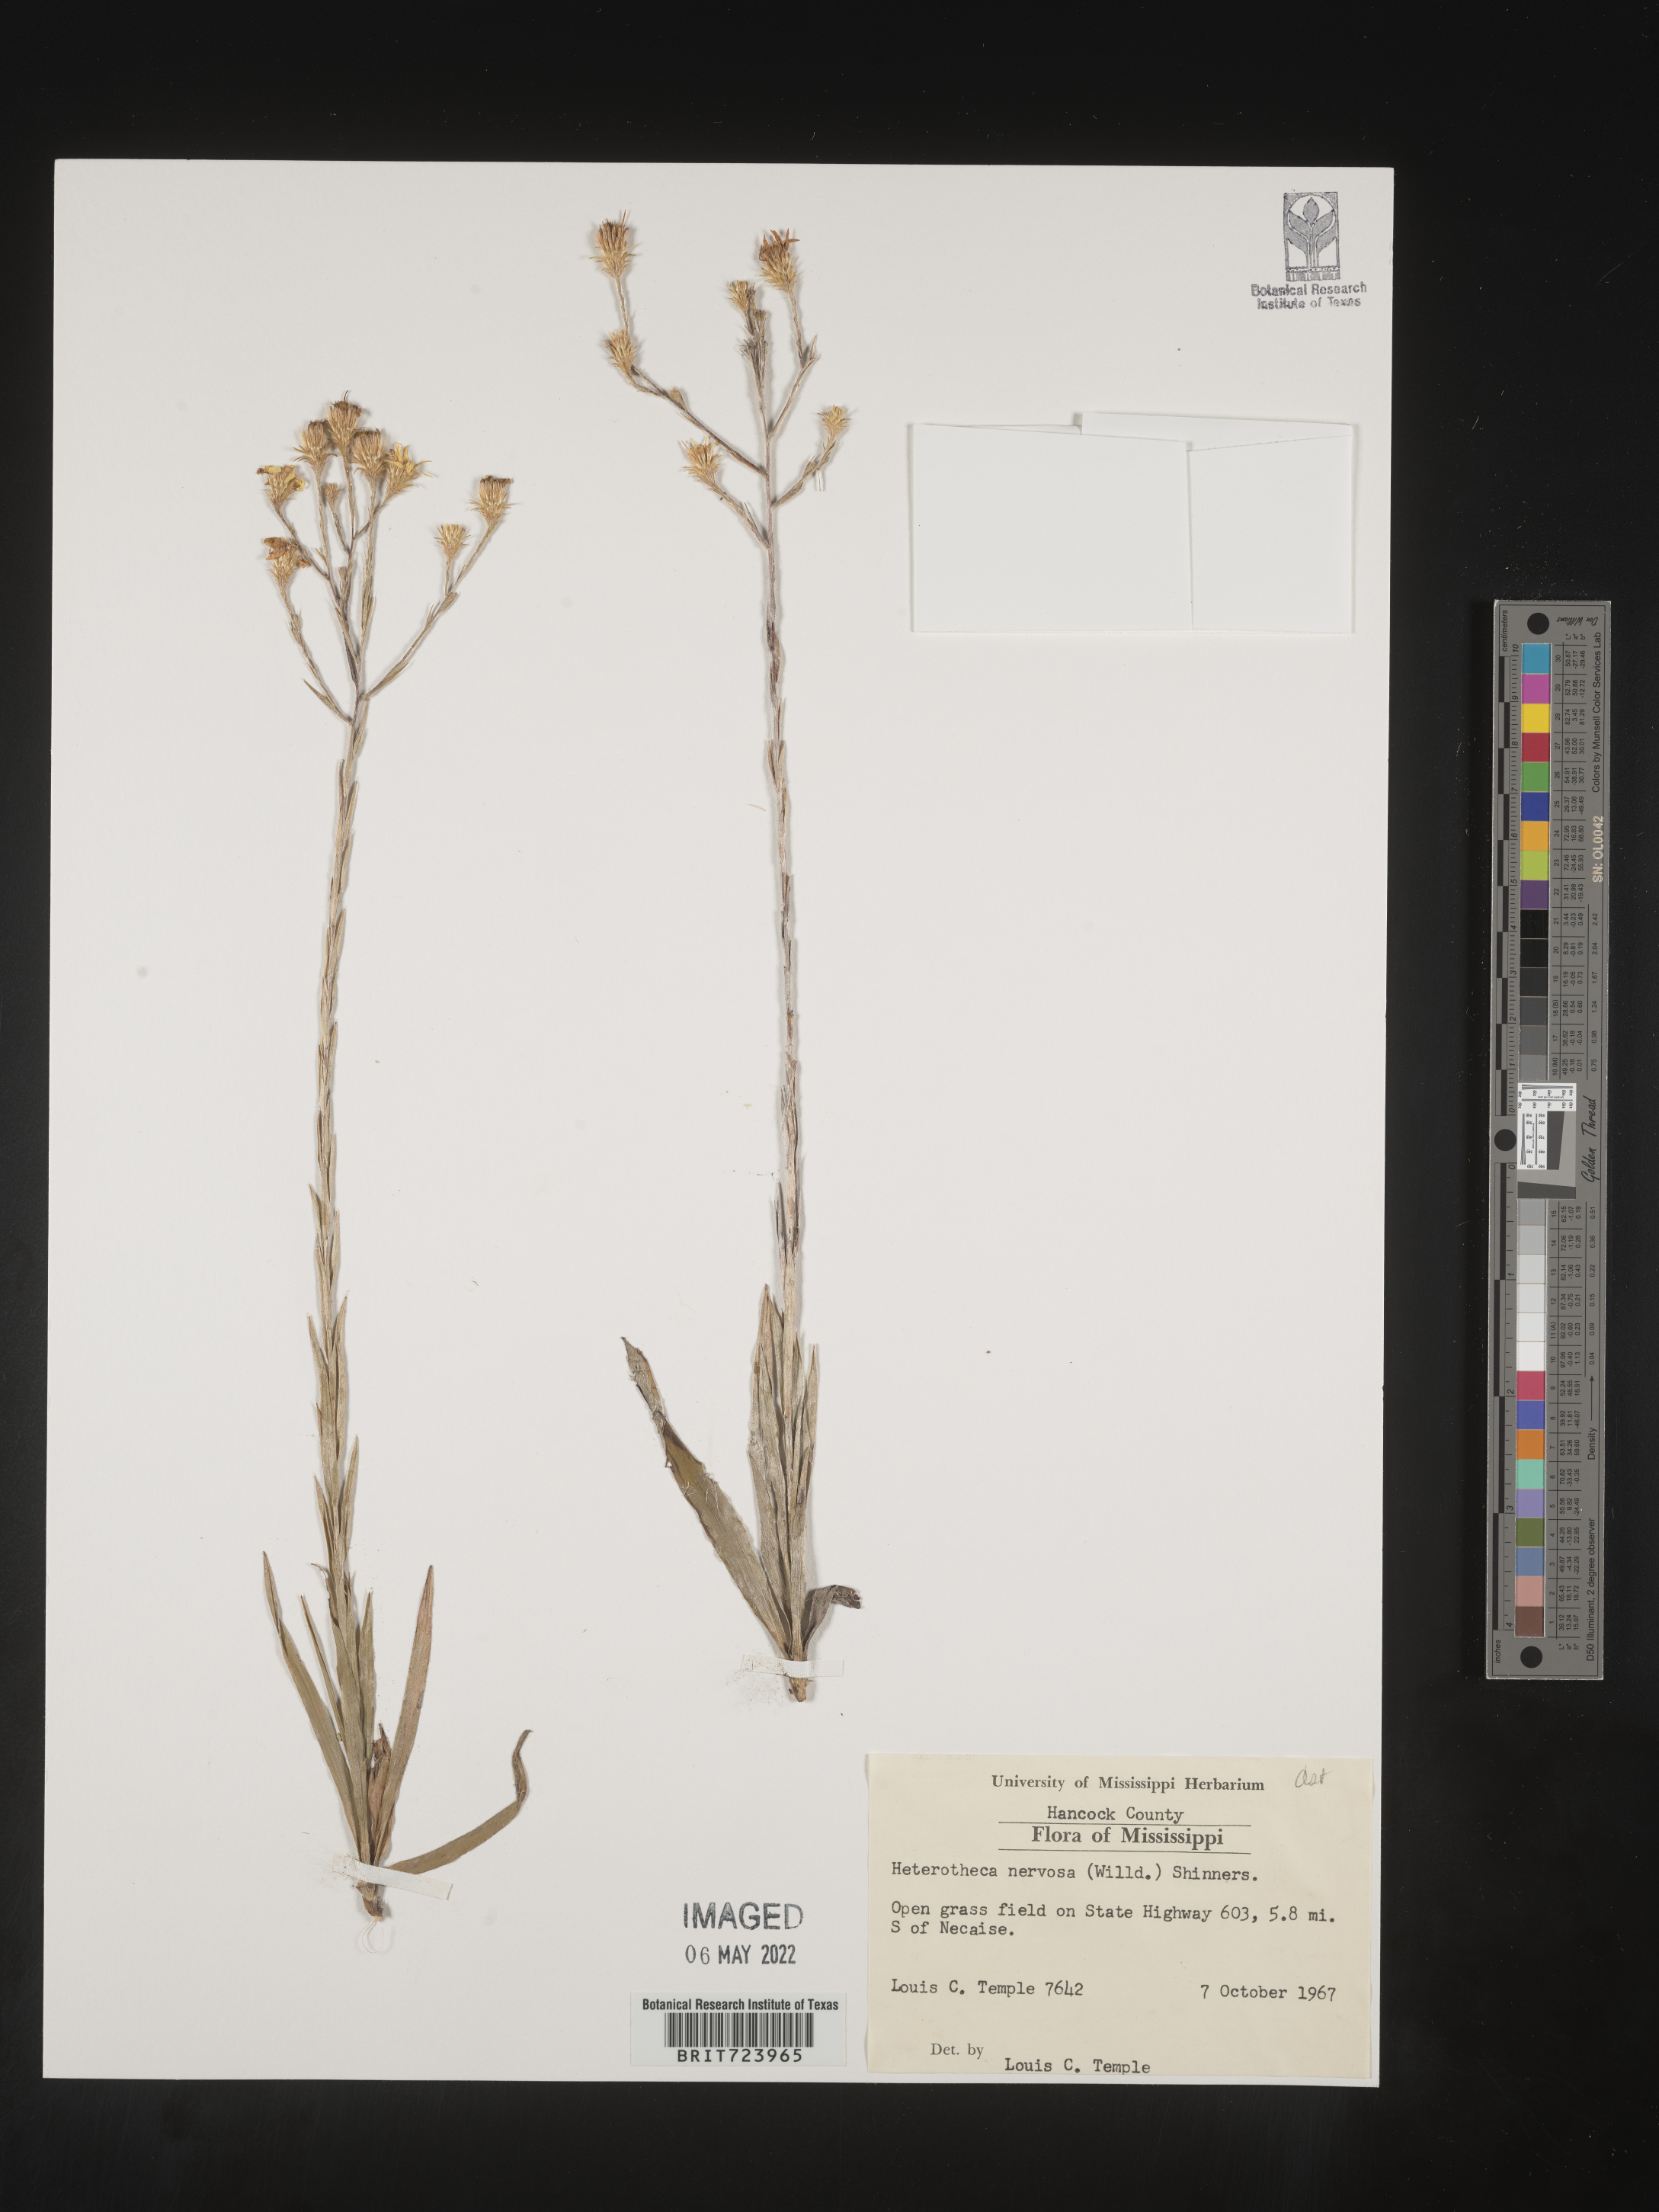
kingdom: Plantae
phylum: Tracheophyta
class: Magnoliopsida
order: Asterales
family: Asteraceae
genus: Pityopsis
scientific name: Pityopsis graminifolia
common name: Grass-leaf golden-aster
